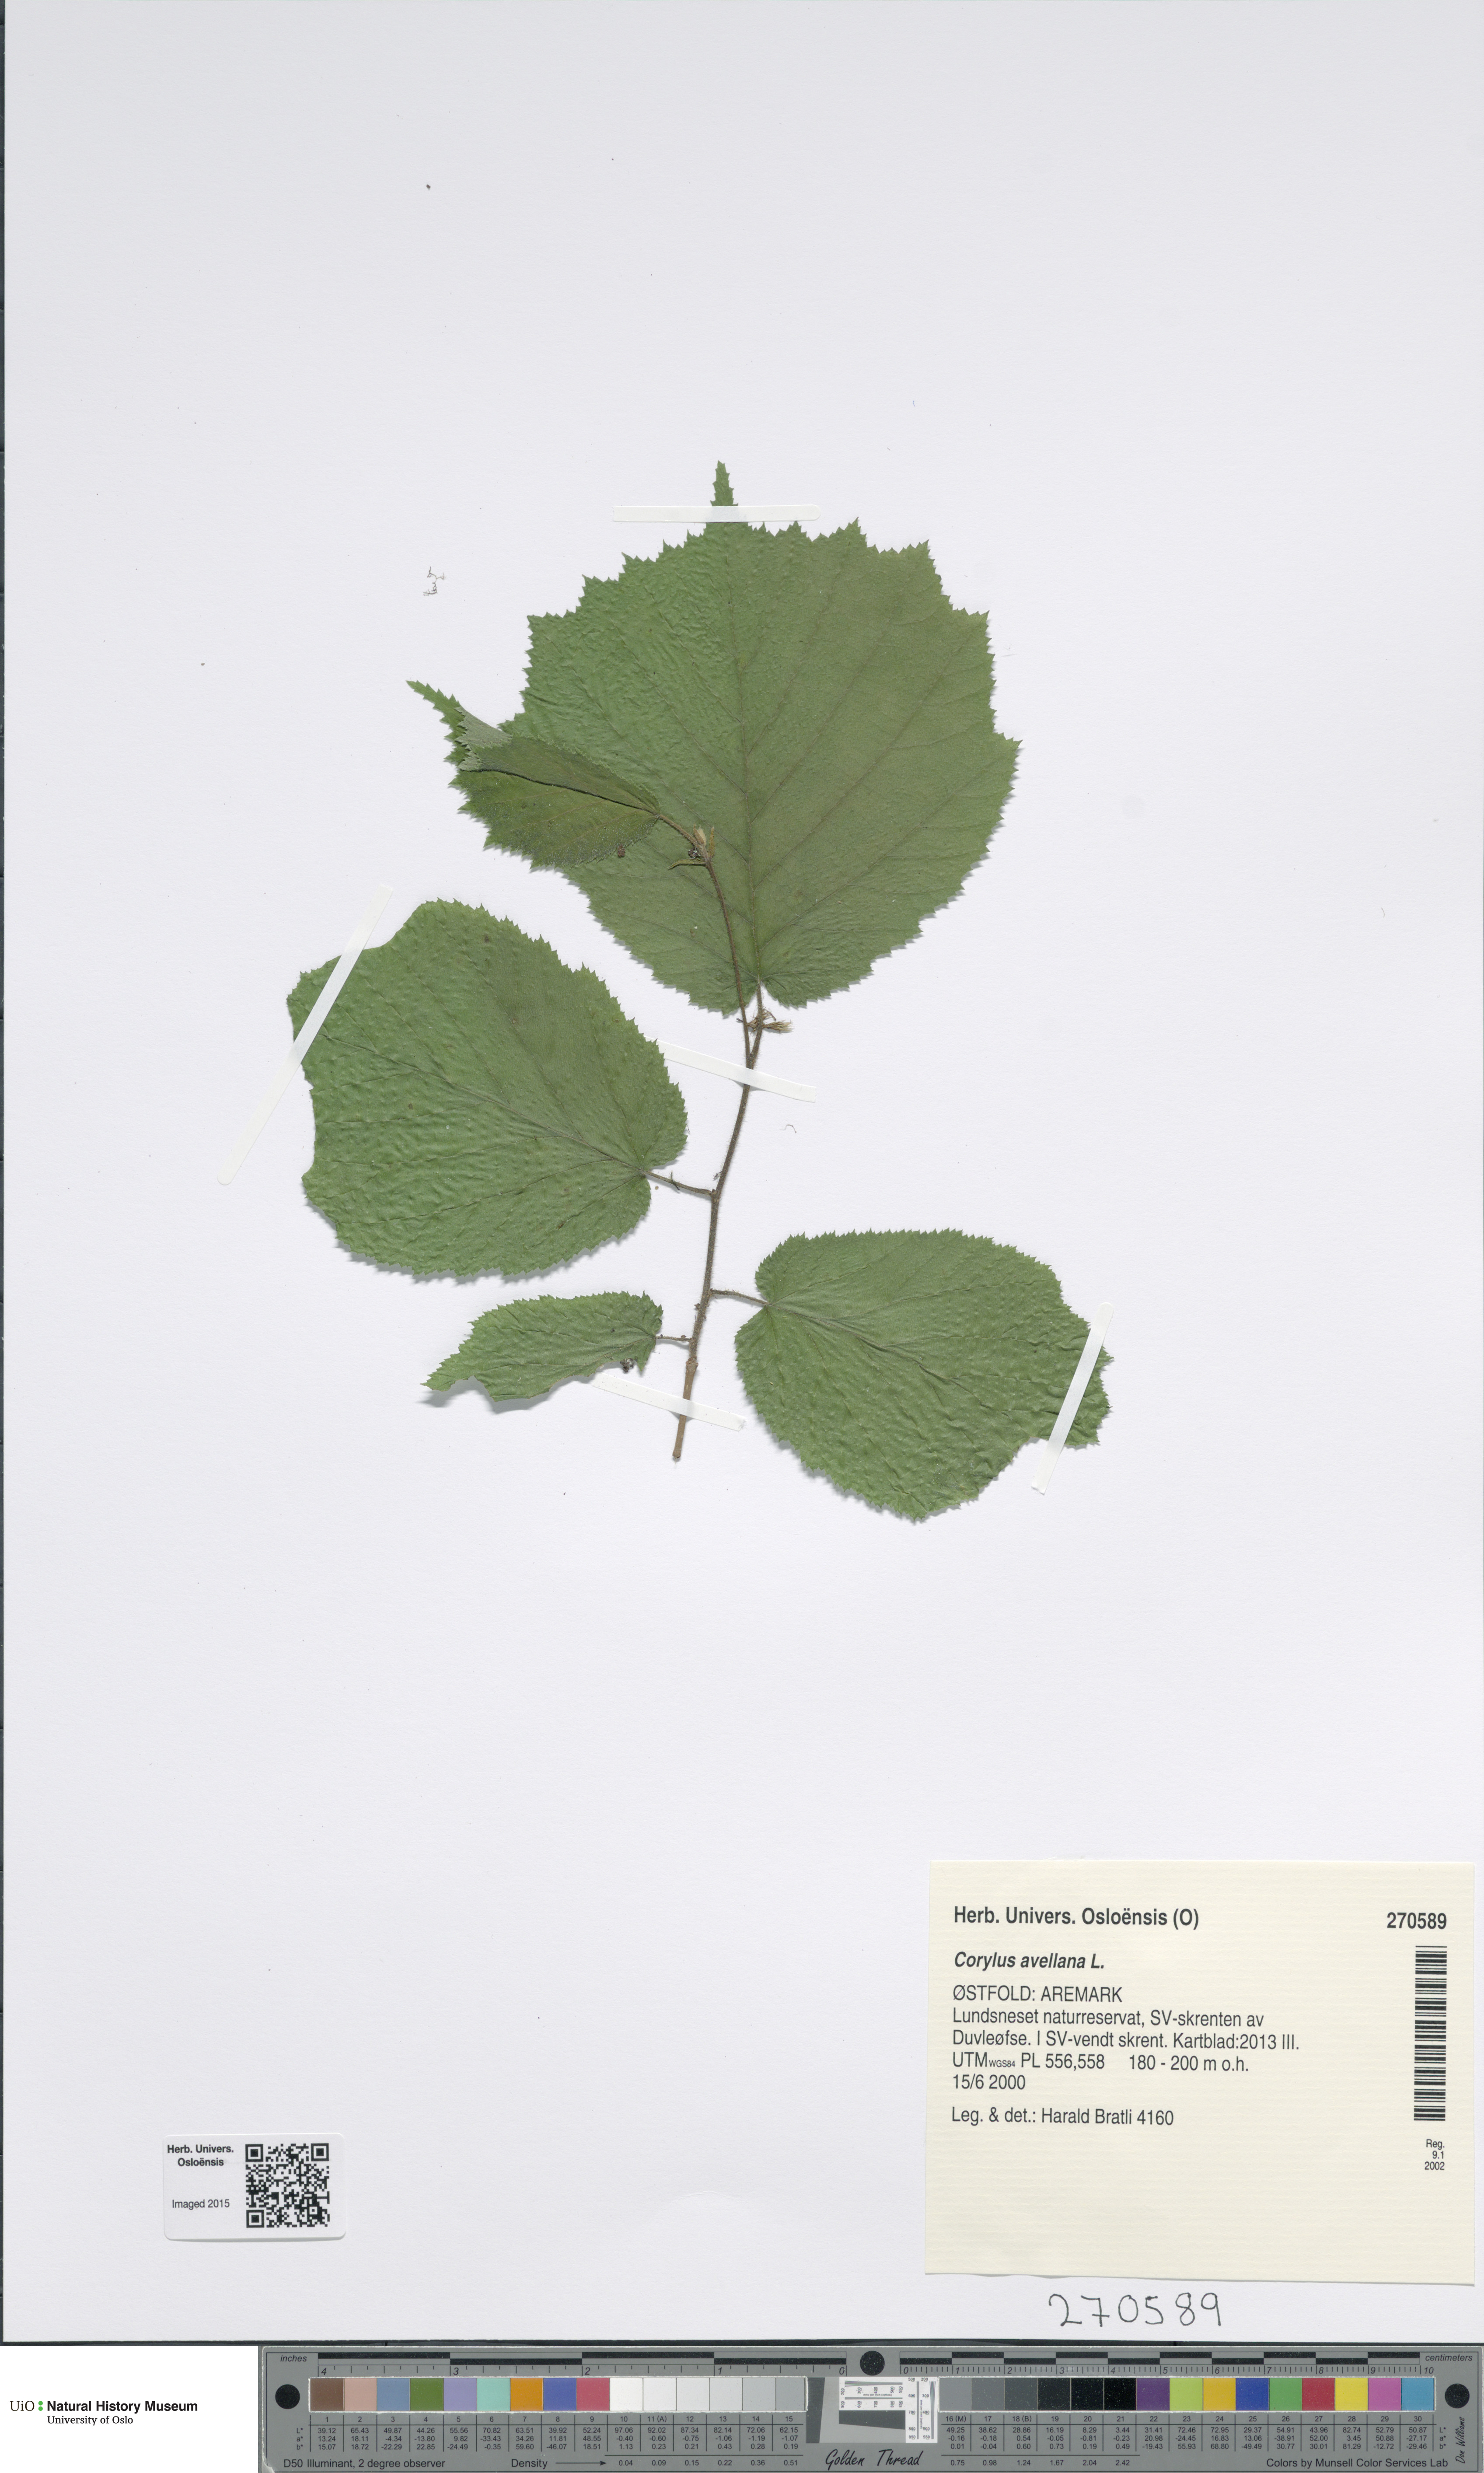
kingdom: Plantae
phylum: Tracheophyta
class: Magnoliopsida
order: Fagales
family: Betulaceae
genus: Corylus
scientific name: Corylus avellana
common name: European hazel
